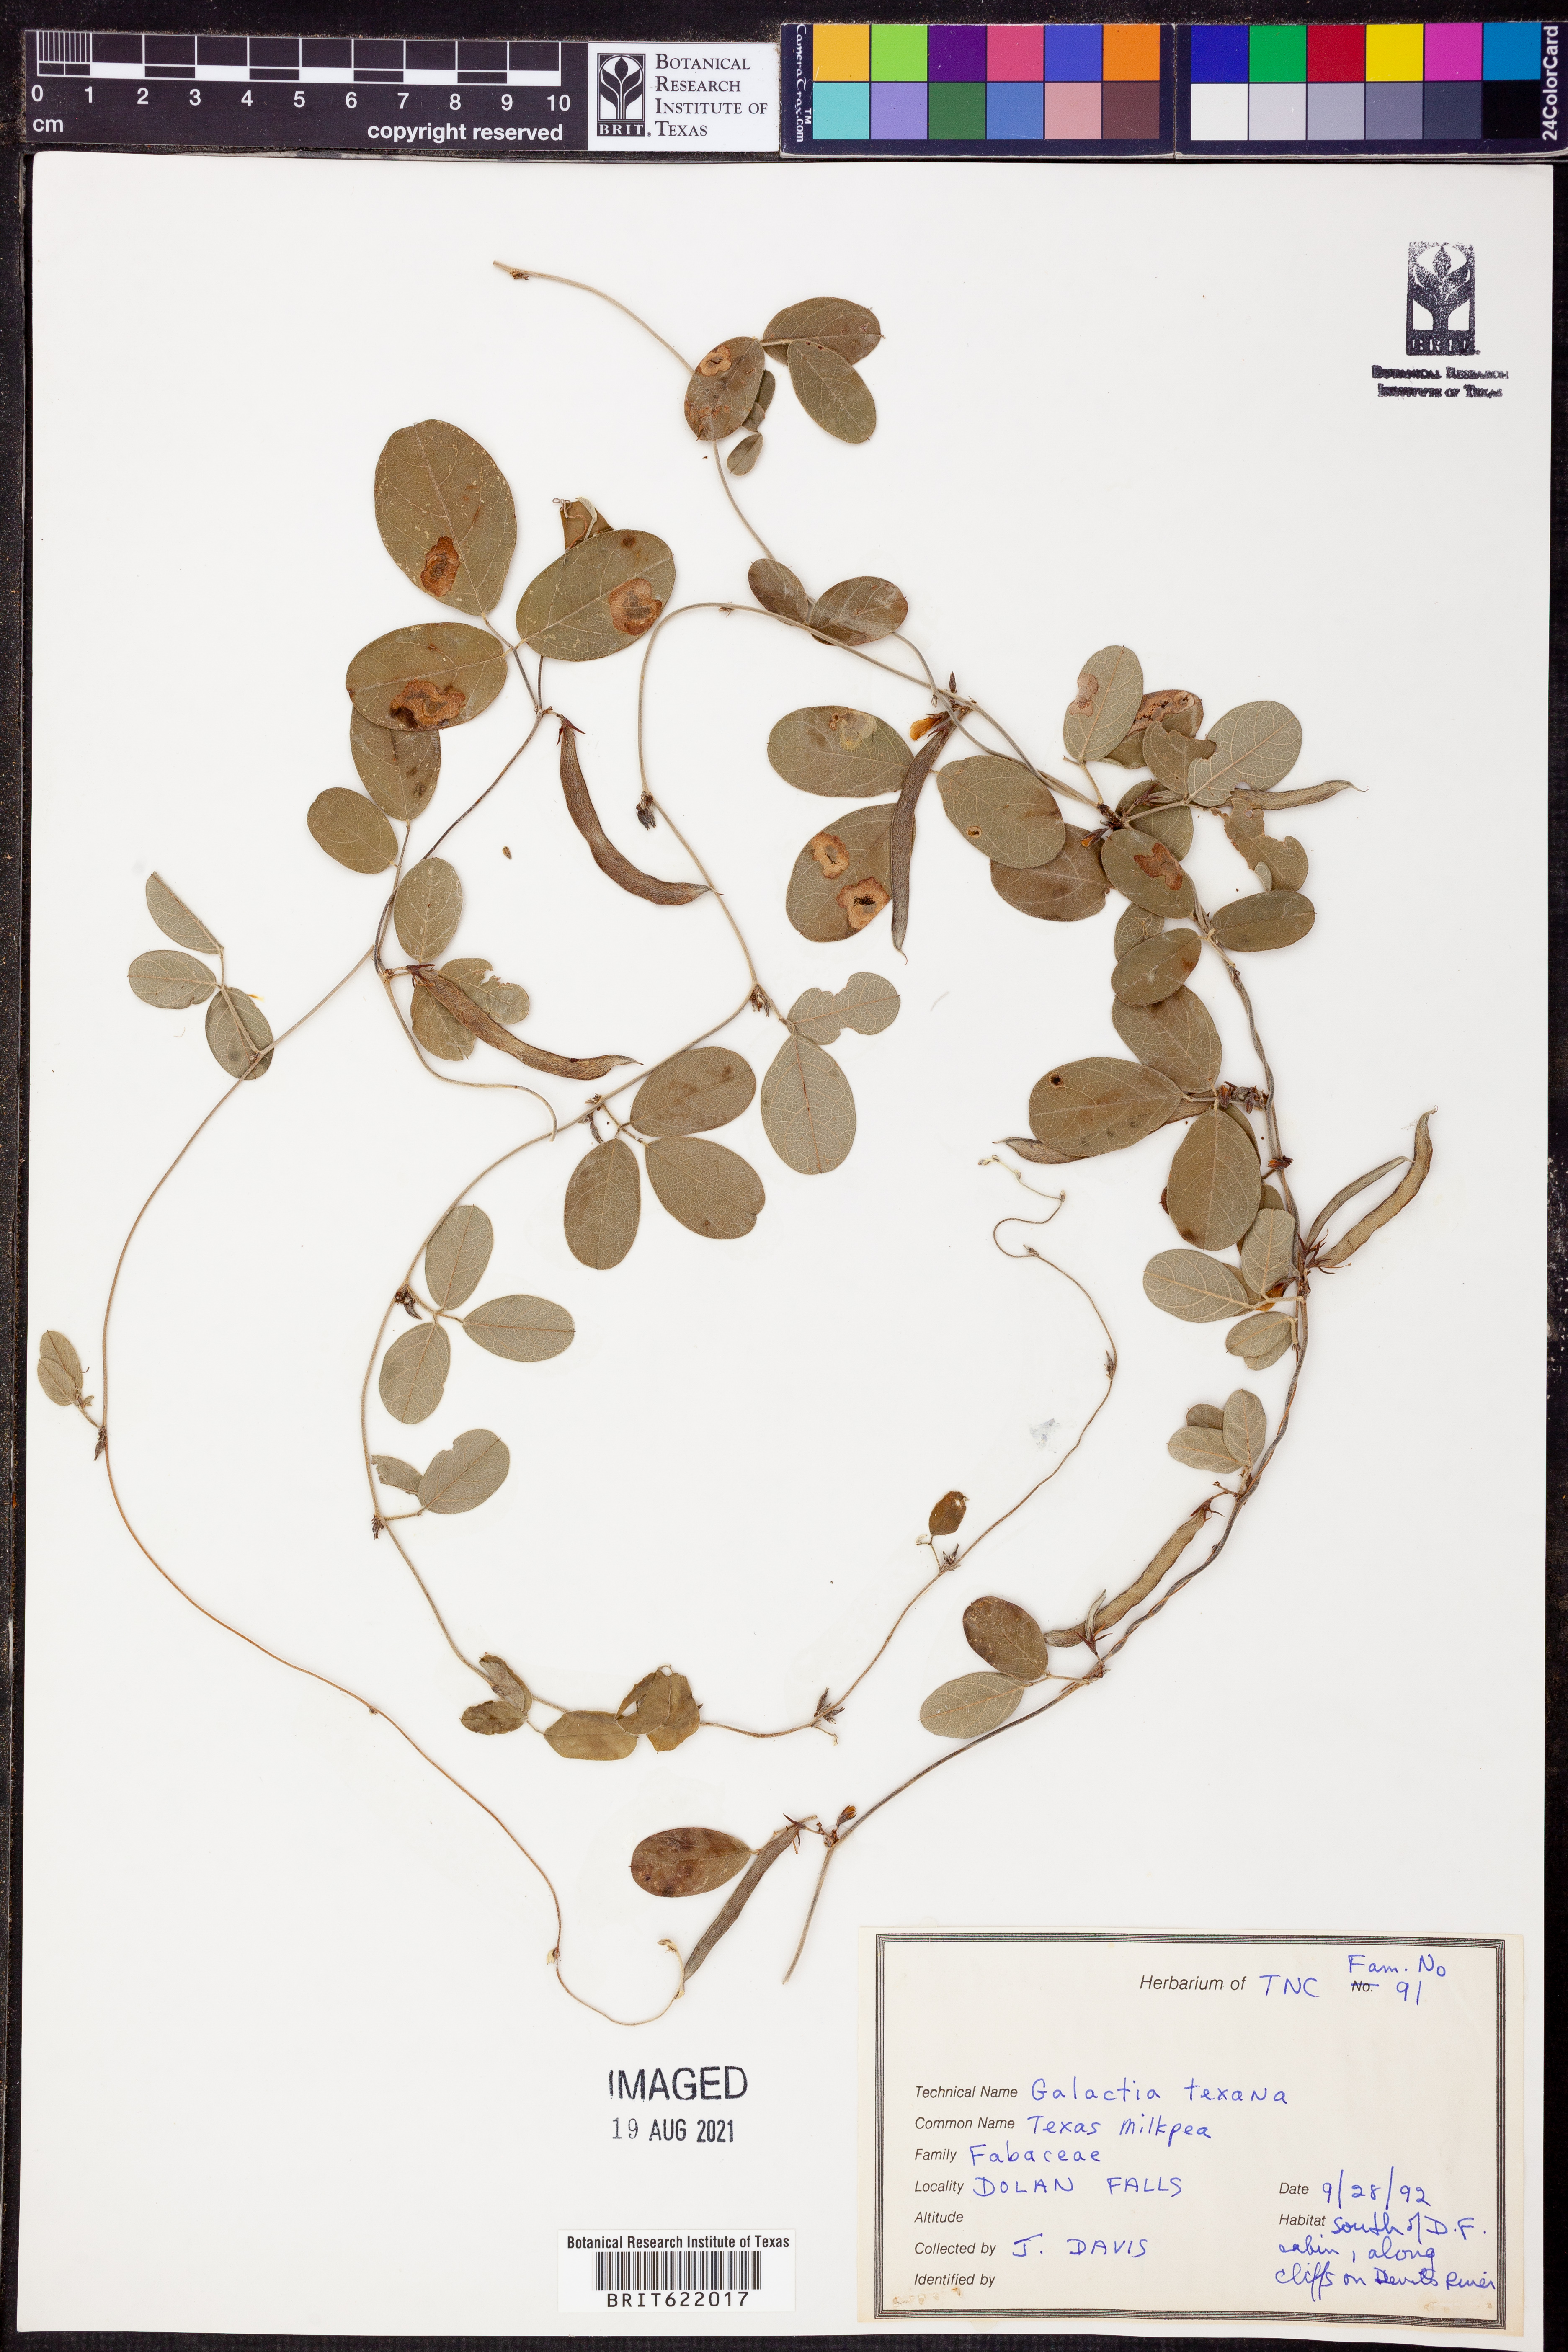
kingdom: Plantae
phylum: Tracheophyta
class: Magnoliopsida
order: Fabales
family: Fabaceae
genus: Galactia
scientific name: Galactia texana
